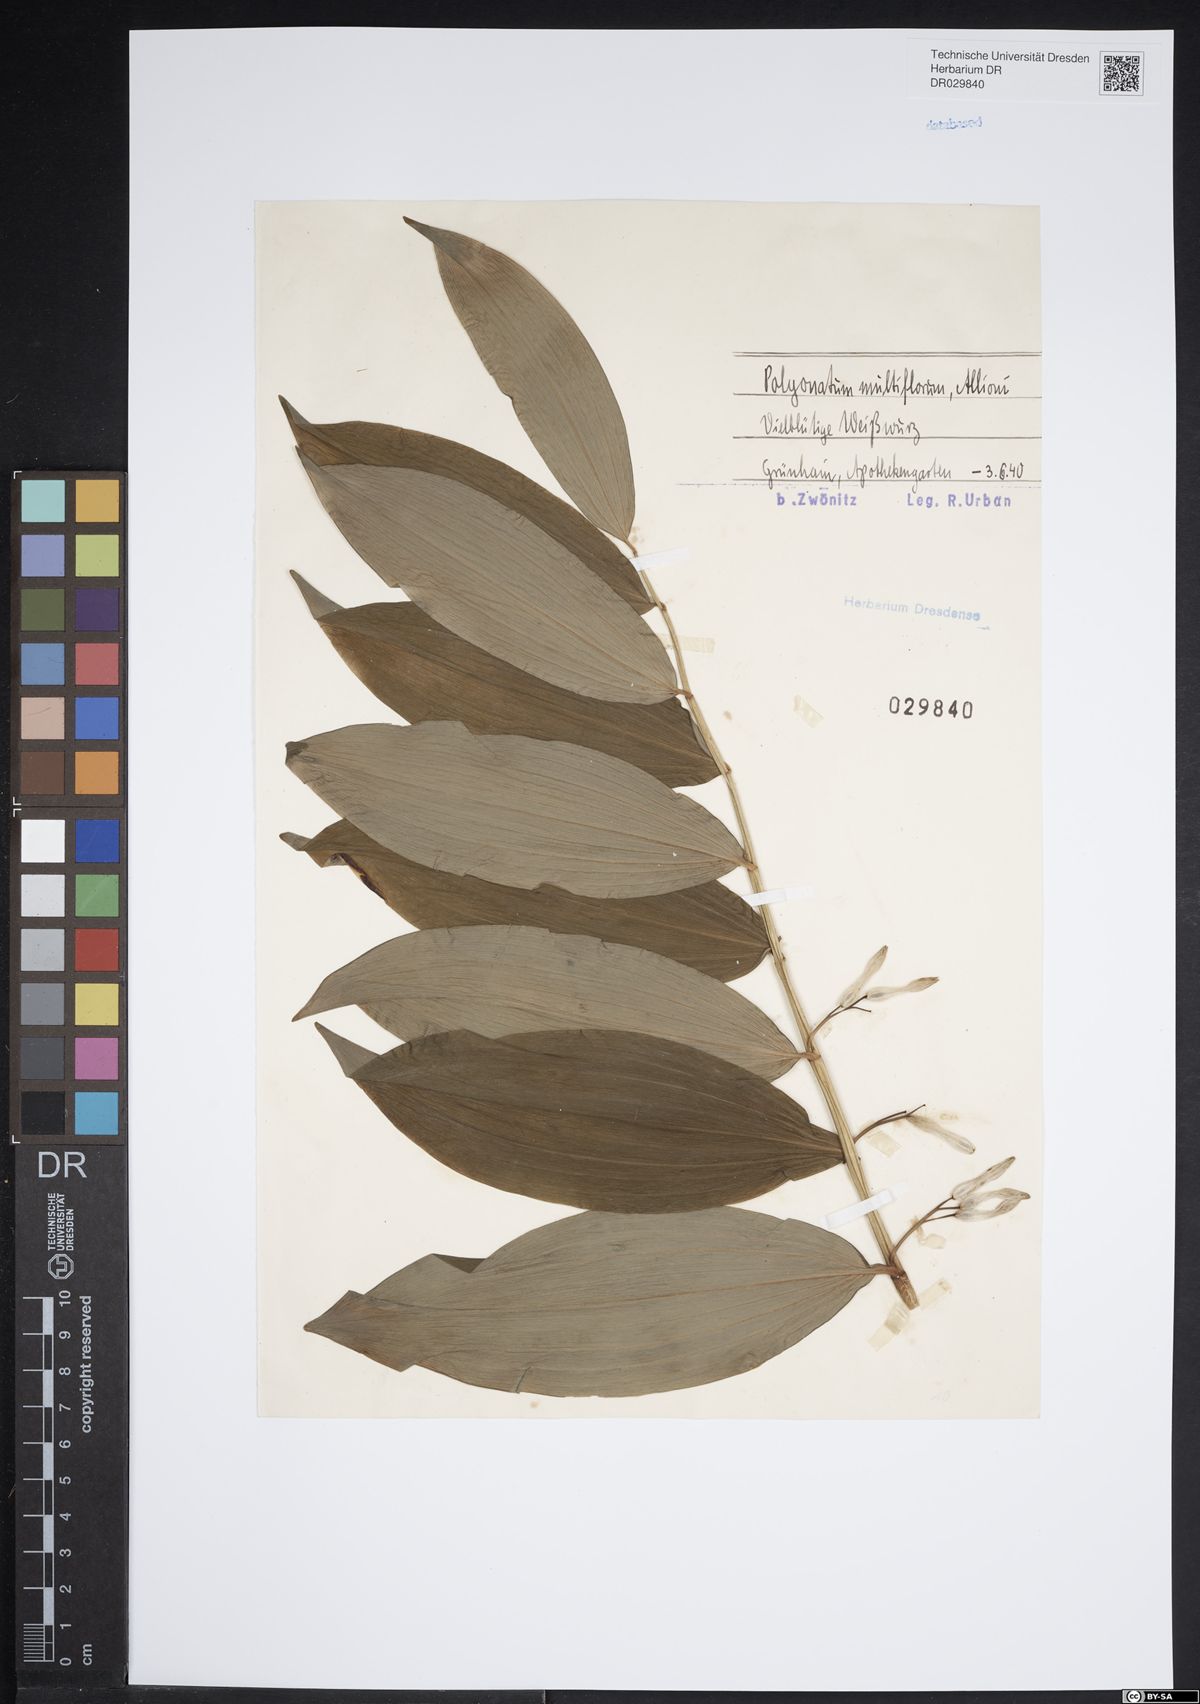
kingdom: Plantae
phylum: Tracheophyta
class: Liliopsida
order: Asparagales
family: Asparagaceae
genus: Polygonatum
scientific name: Polygonatum odoratum
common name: Angular solomon's-seal
